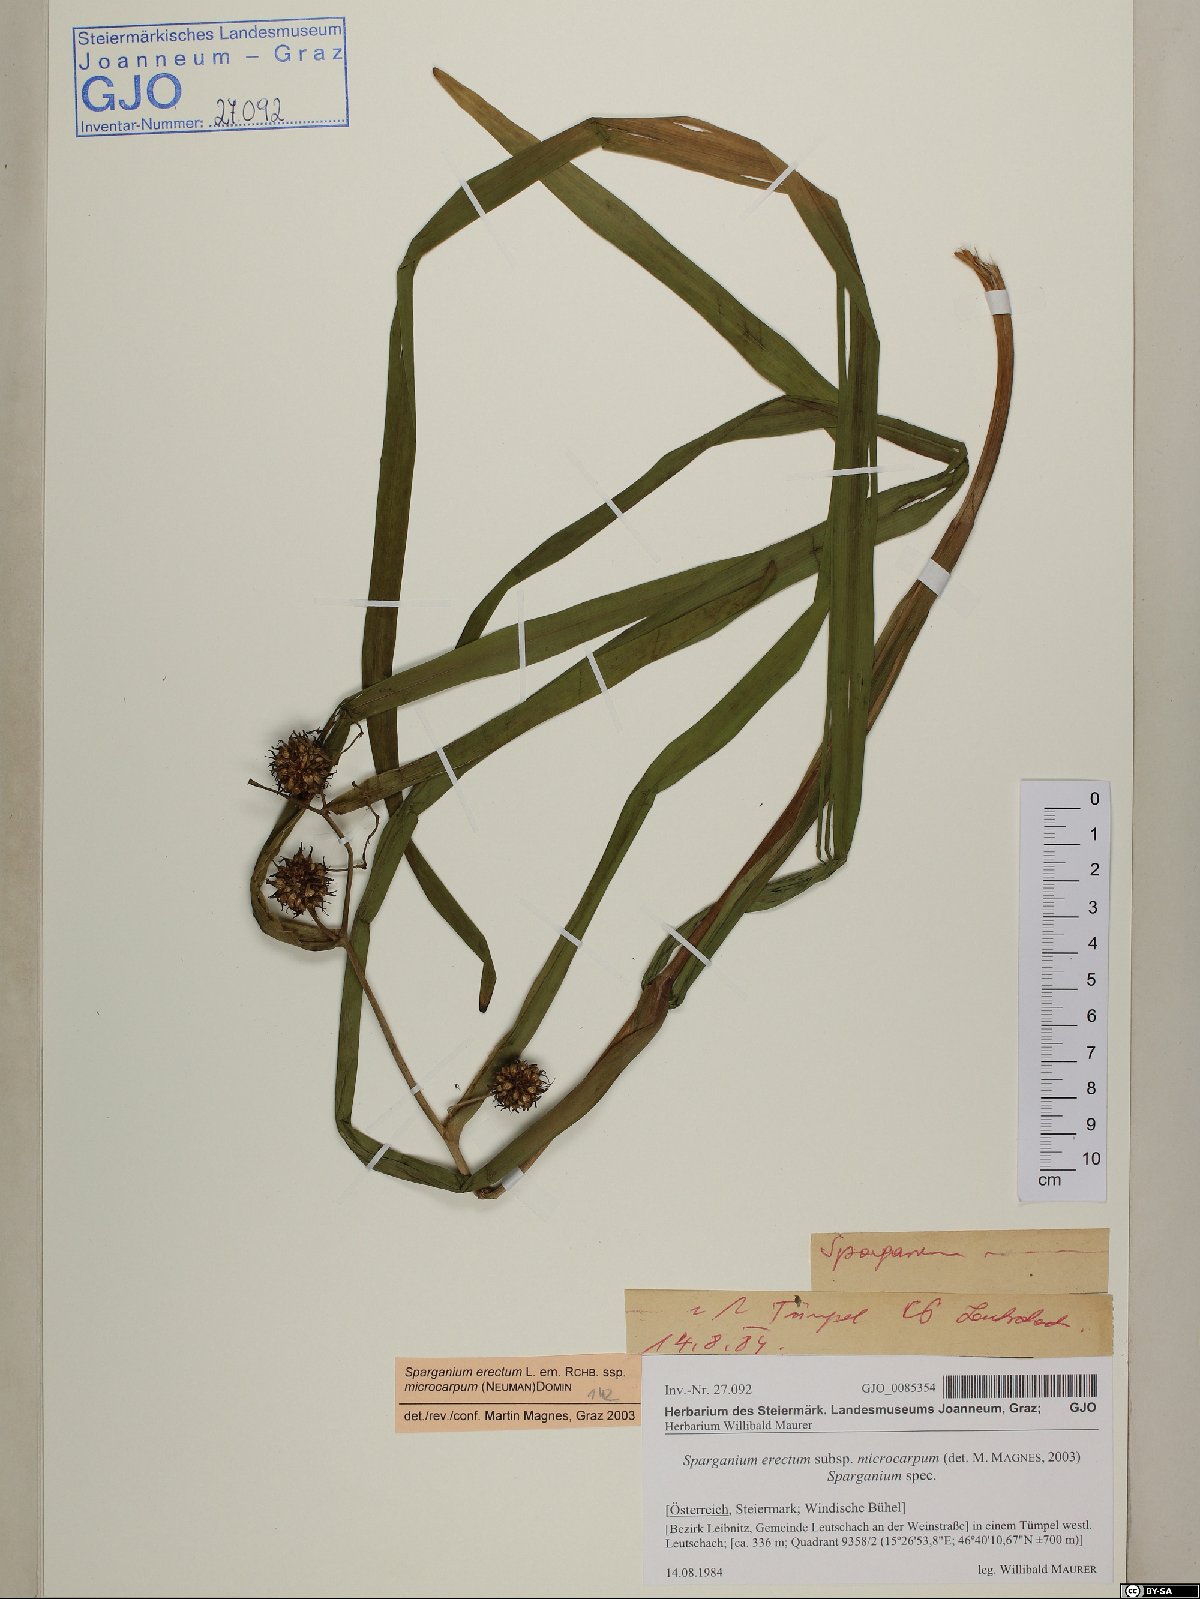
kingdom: Plantae
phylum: Tracheophyta
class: Liliopsida
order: Poales
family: Typhaceae
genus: Sparganium
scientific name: Sparganium erectum
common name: Branched bur-reed
